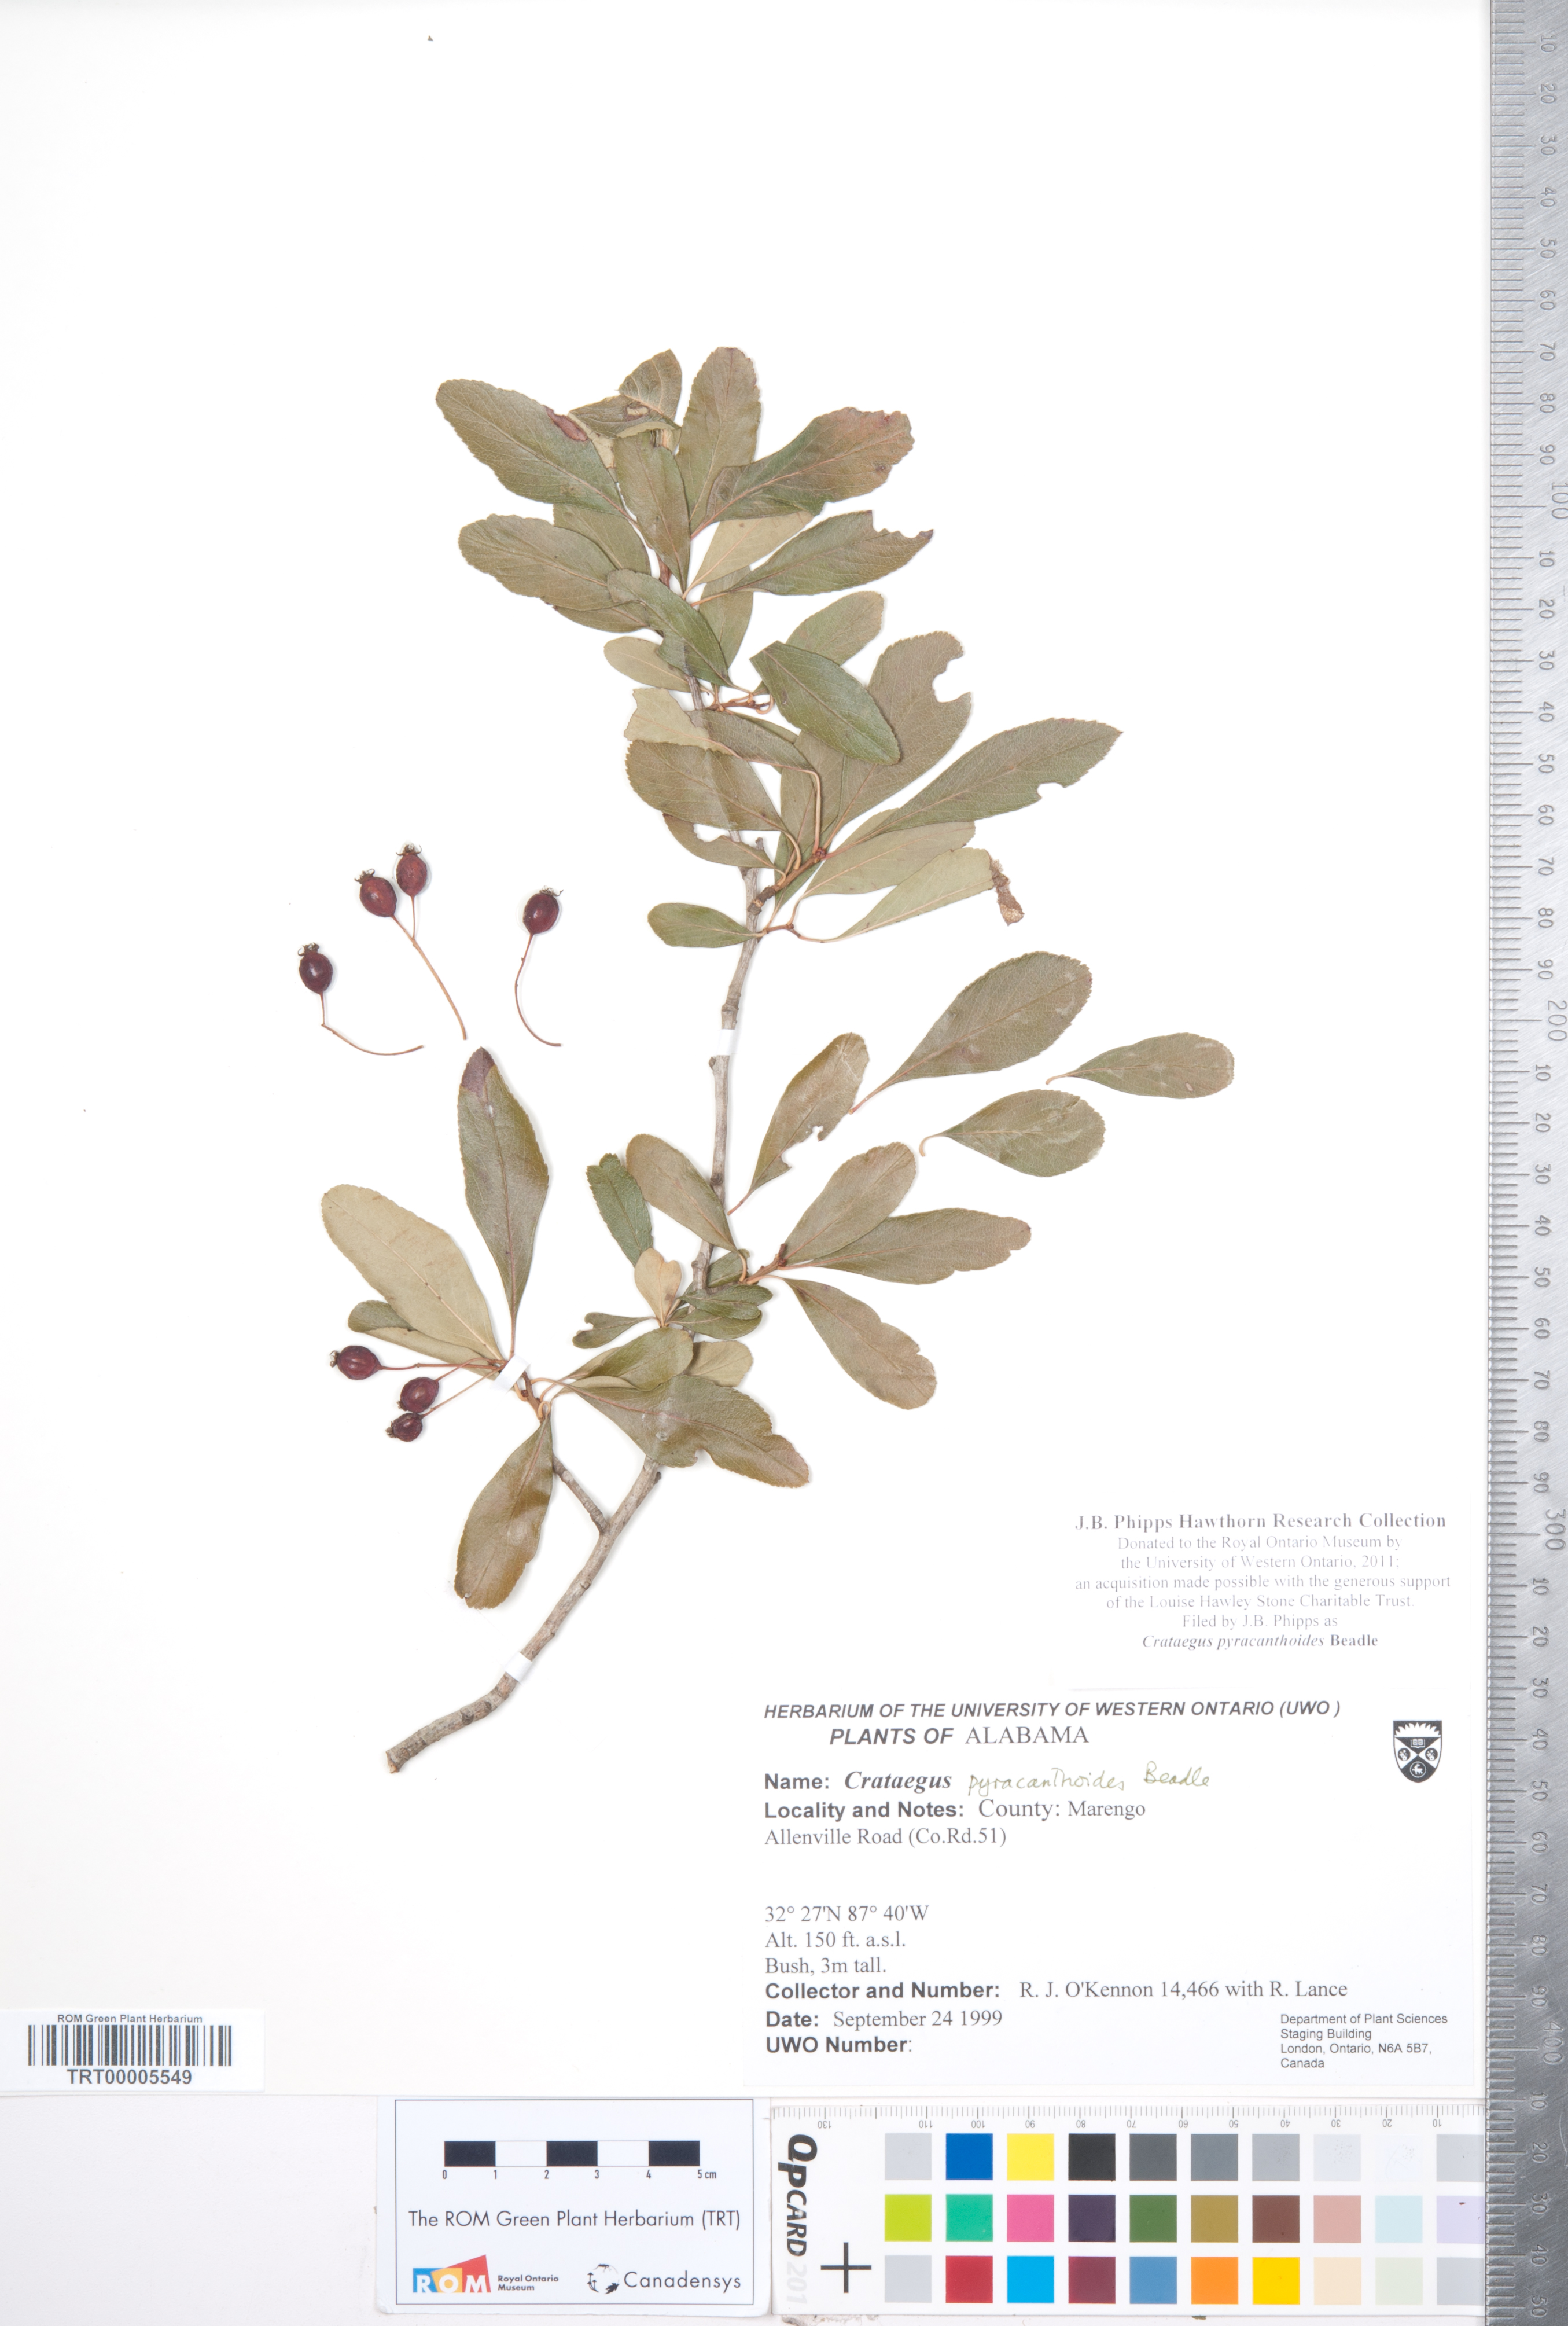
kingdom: Plantae
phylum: Tracheophyta
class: Magnoliopsida
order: Rosales
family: Rosaceae
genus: Crataegus
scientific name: Crataegus crus-galli
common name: Cockspurthorn
